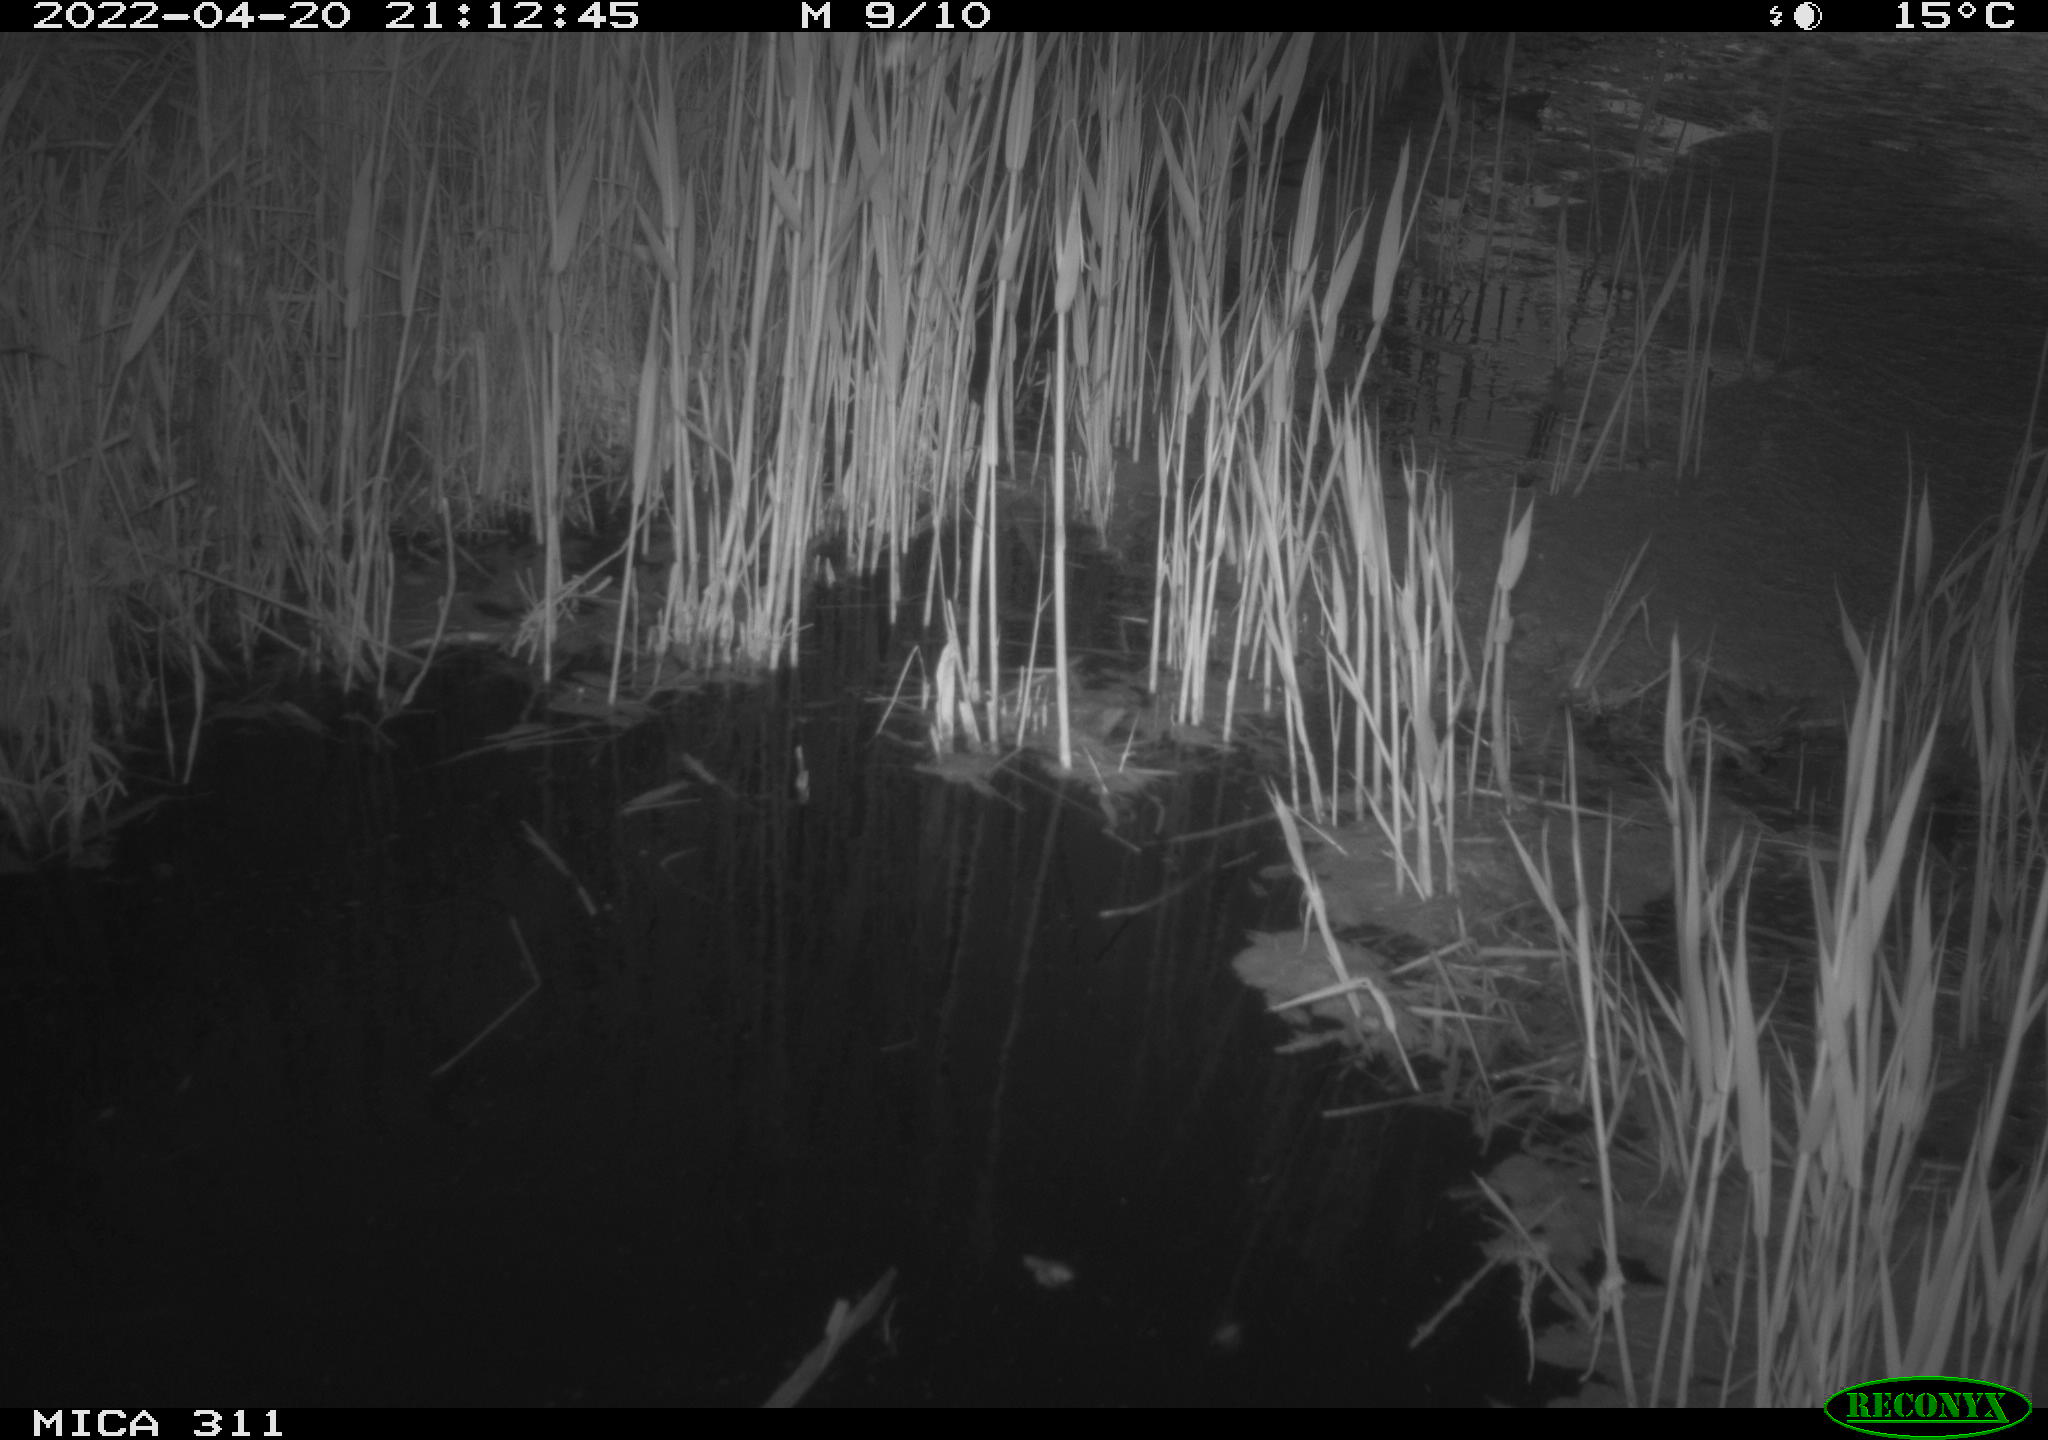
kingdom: Animalia
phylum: Chordata
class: Aves
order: Gruiformes
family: Rallidae
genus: Gallinula
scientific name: Gallinula chloropus
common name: Common moorhen
